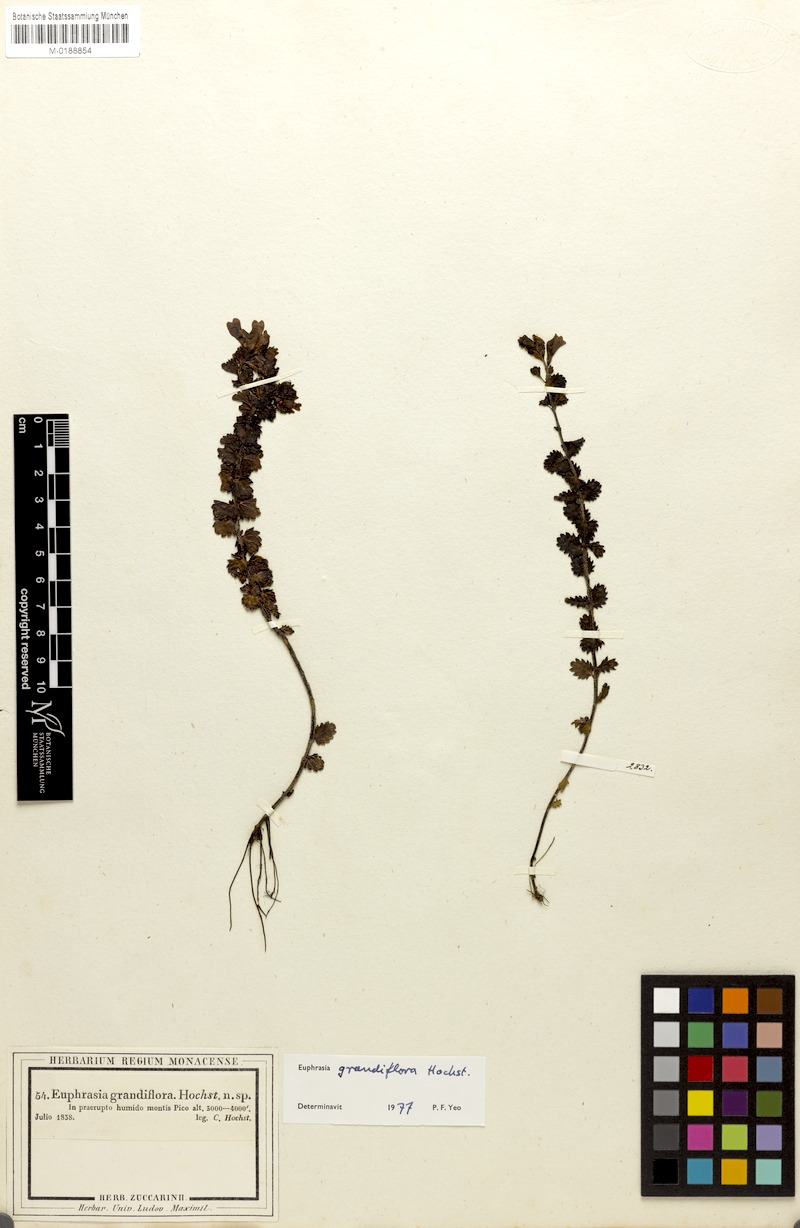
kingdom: Plantae
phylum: Tracheophyta
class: Magnoliopsida
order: Lamiales
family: Orobanchaceae
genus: Euphrasia
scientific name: Euphrasia grandiflora
